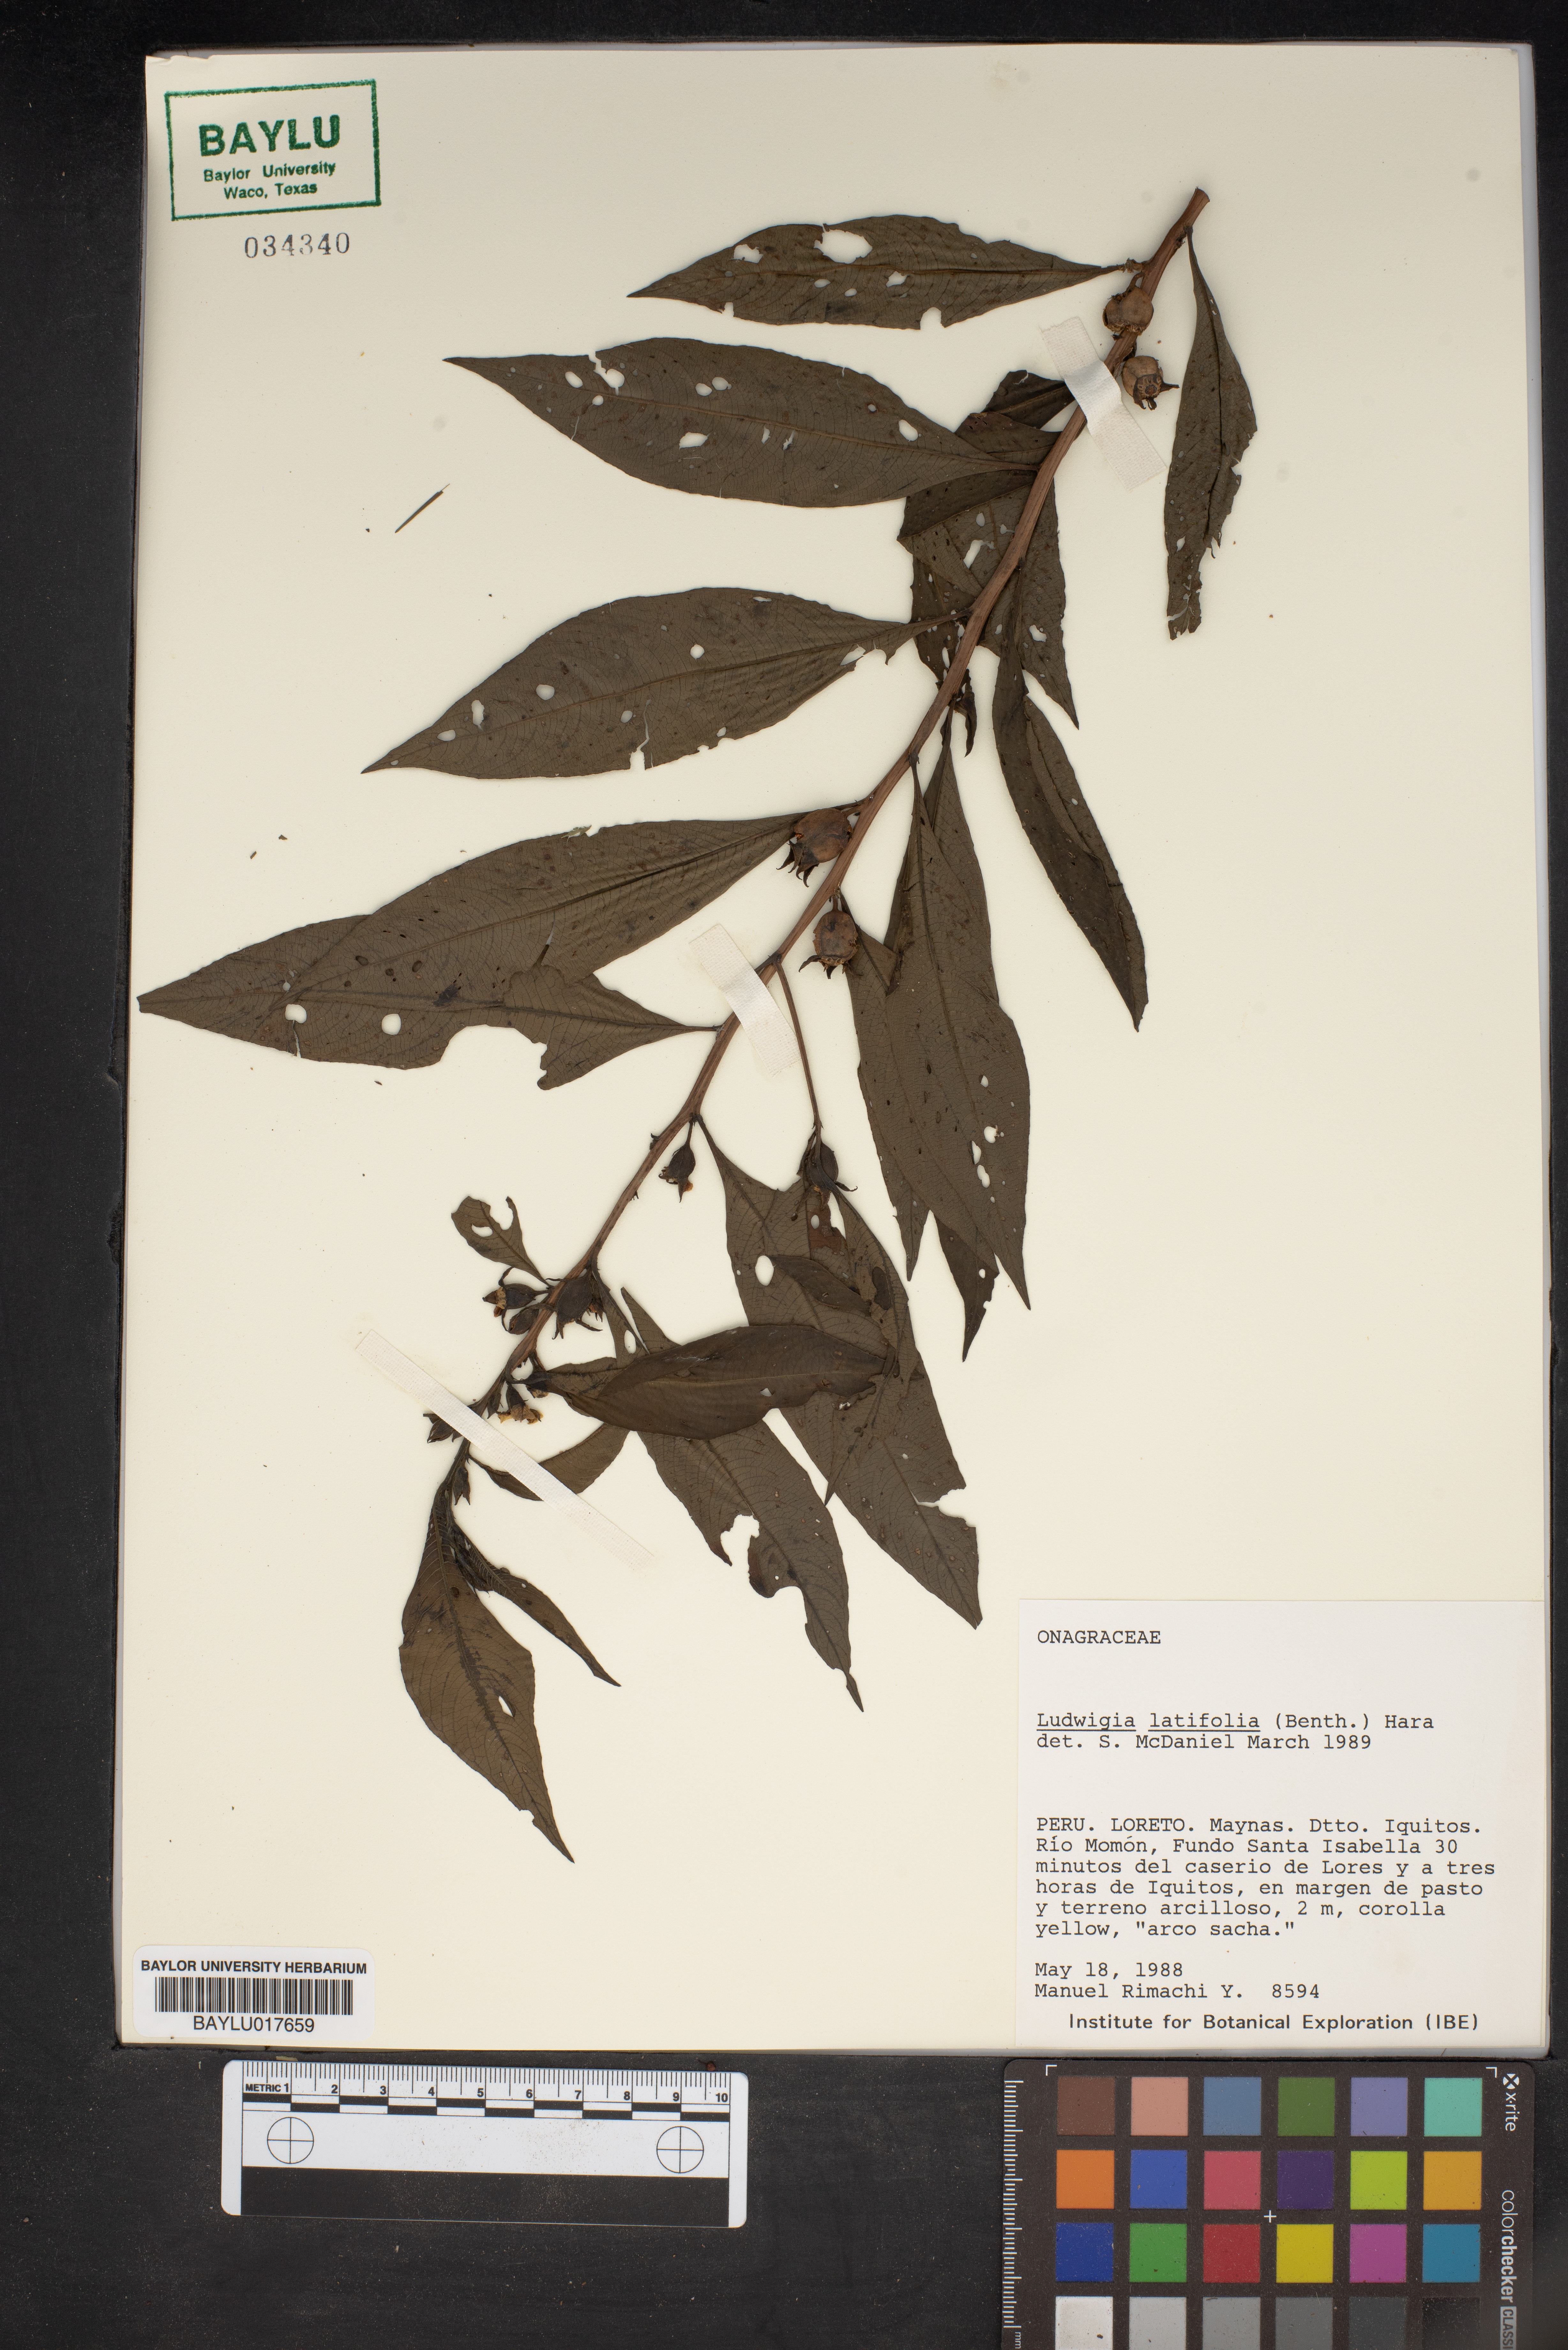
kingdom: Plantae
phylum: Tracheophyta
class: Magnoliopsida
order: Myrtales
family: Onagraceae
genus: Ludwigia
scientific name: Ludwigia latifolia
